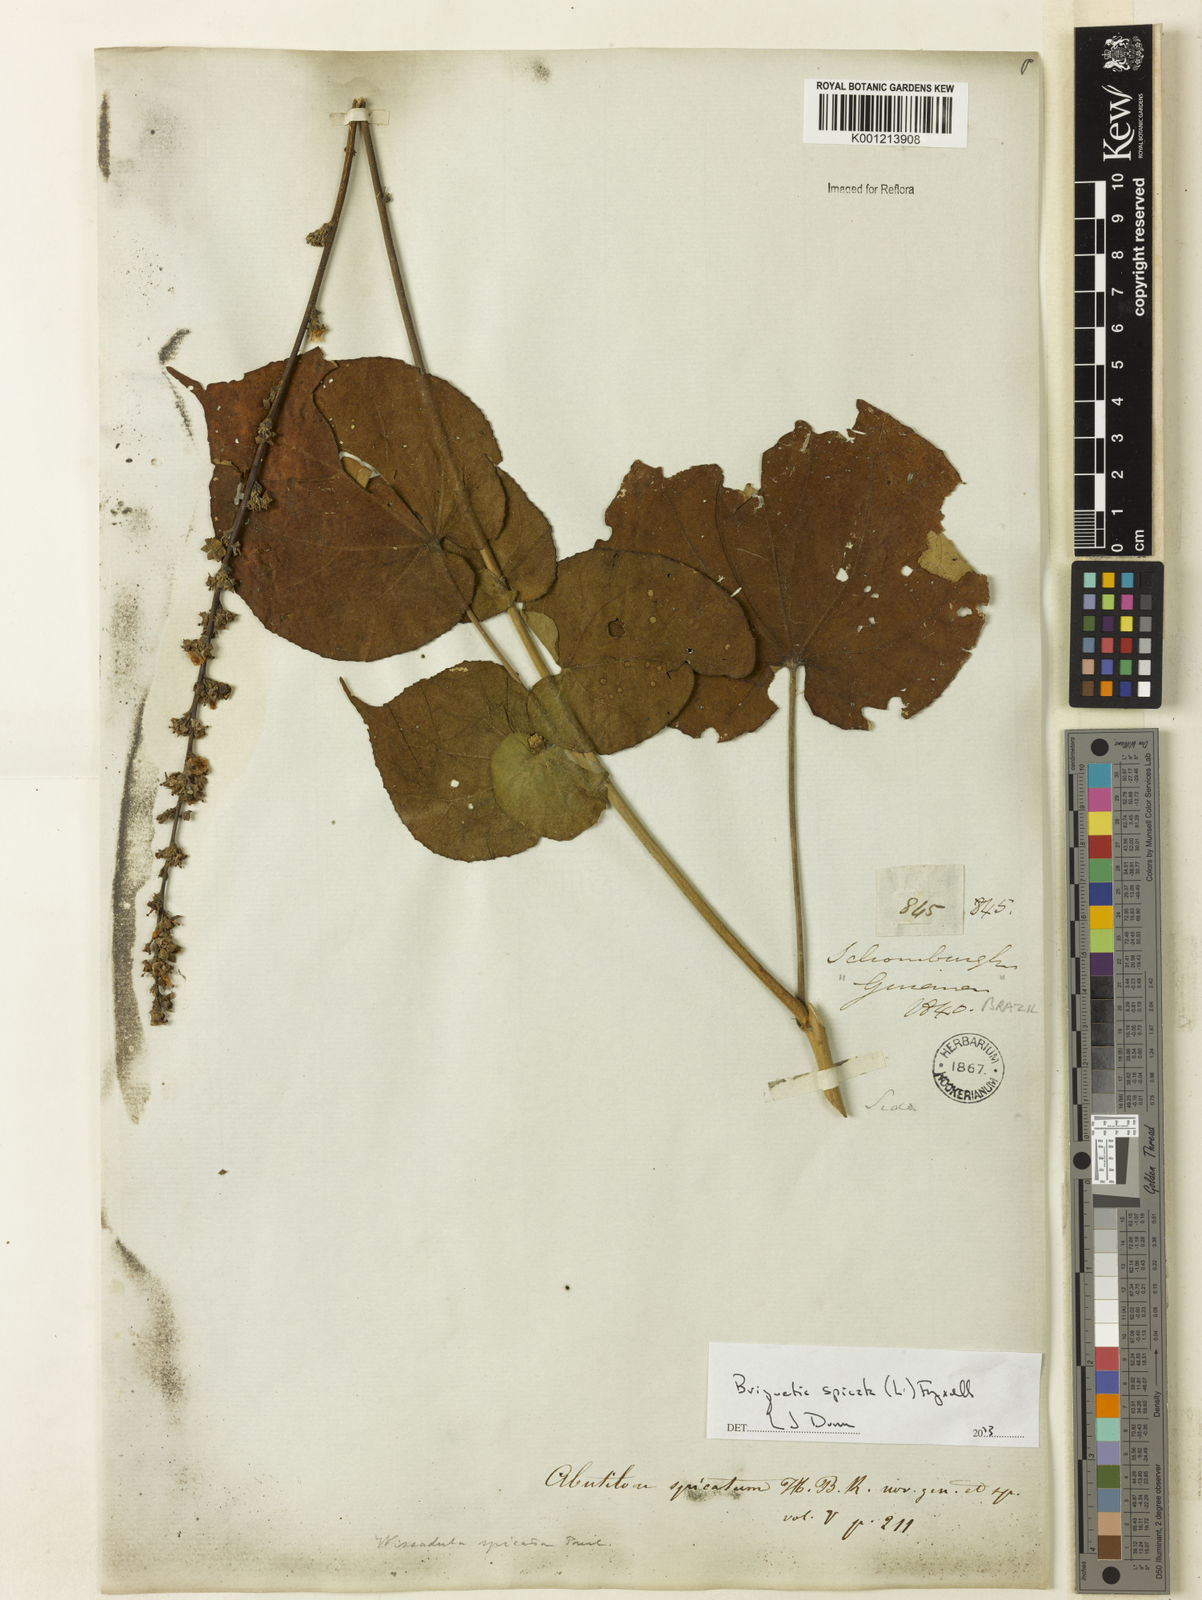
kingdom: Plantae
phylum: Tracheophyta
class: Magnoliopsida
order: Malvales
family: Malvaceae
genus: Allobriquetia
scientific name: Allobriquetia spicata
